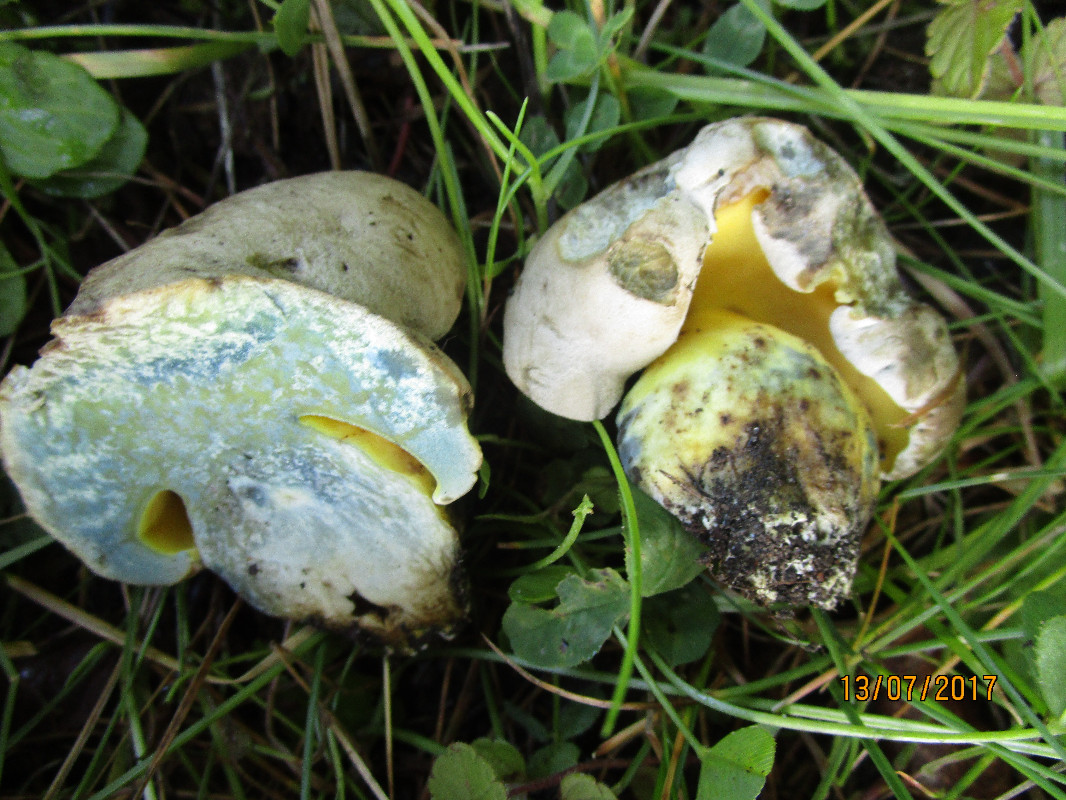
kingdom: Fungi
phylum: Basidiomycota
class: Agaricomycetes
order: Boletales
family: Boletaceae
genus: Caloboletus
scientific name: Caloboletus radicans
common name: rod-rørhat
